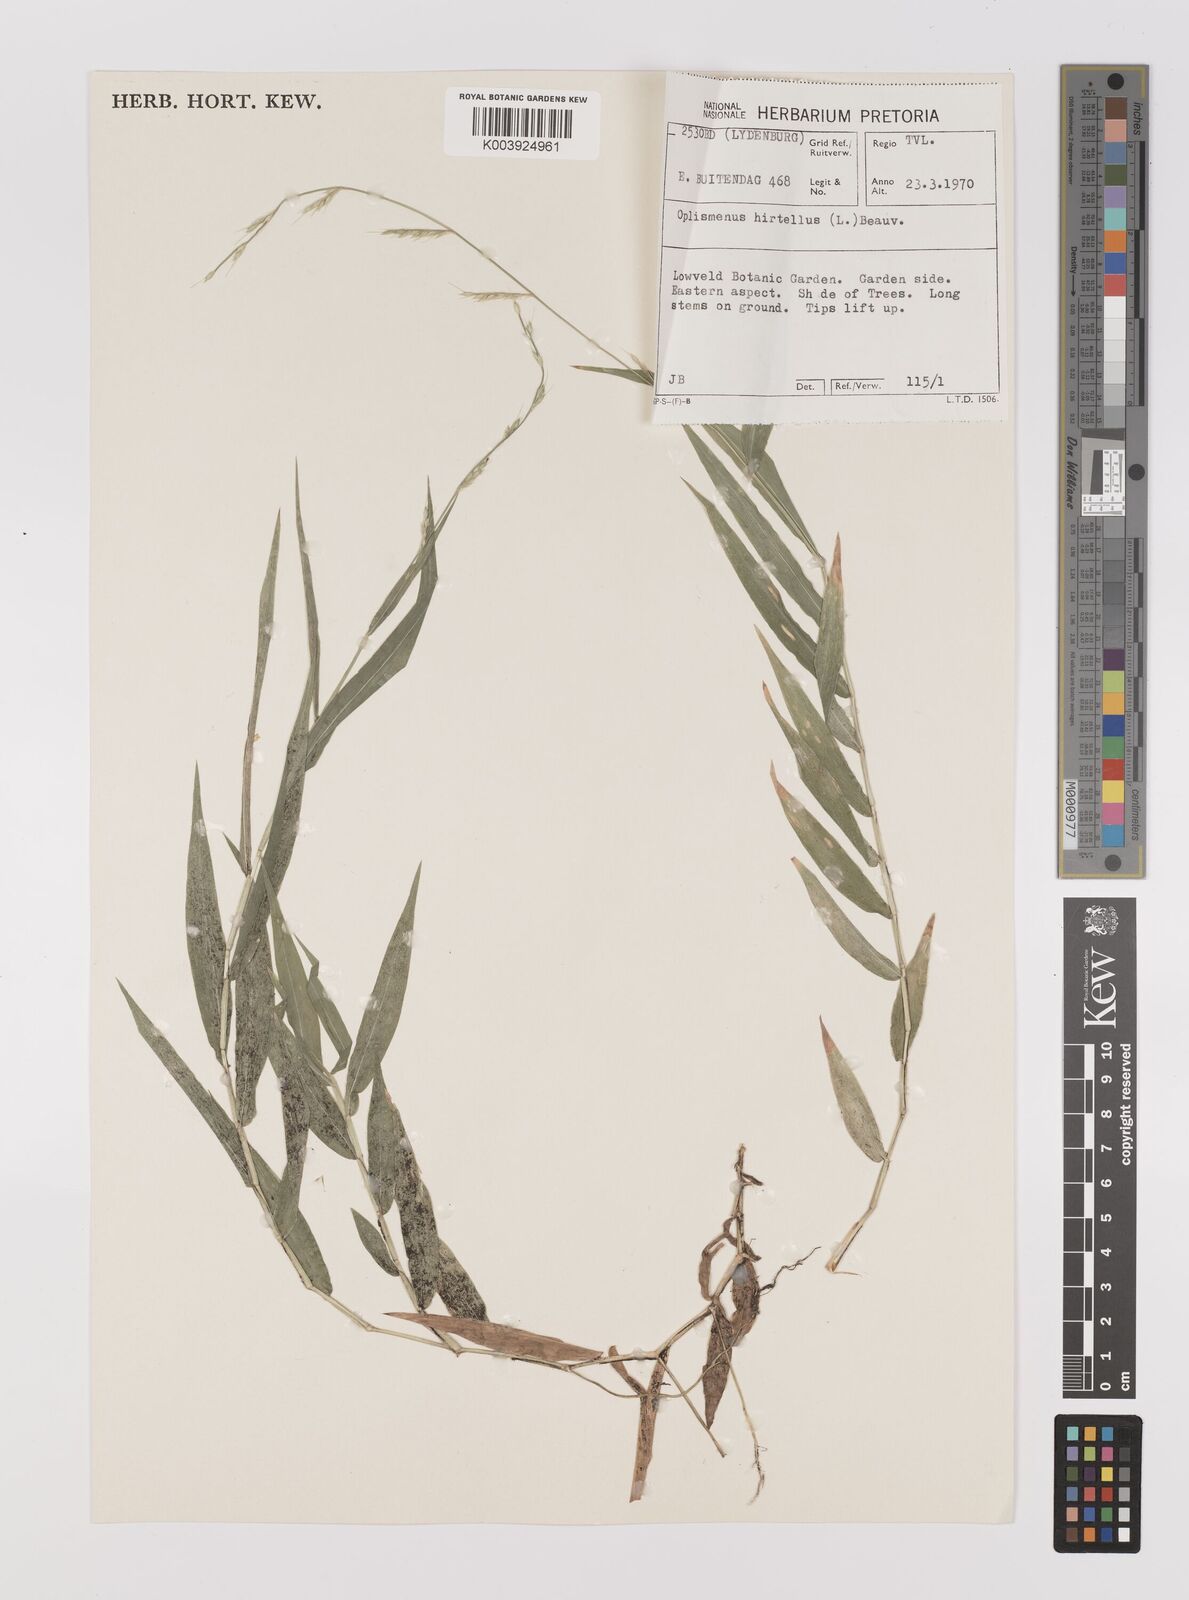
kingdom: Plantae
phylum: Tracheophyta
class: Liliopsida
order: Poales
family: Poaceae
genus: Oplismenus
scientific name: Oplismenus hirtellus
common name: Basketgrass
